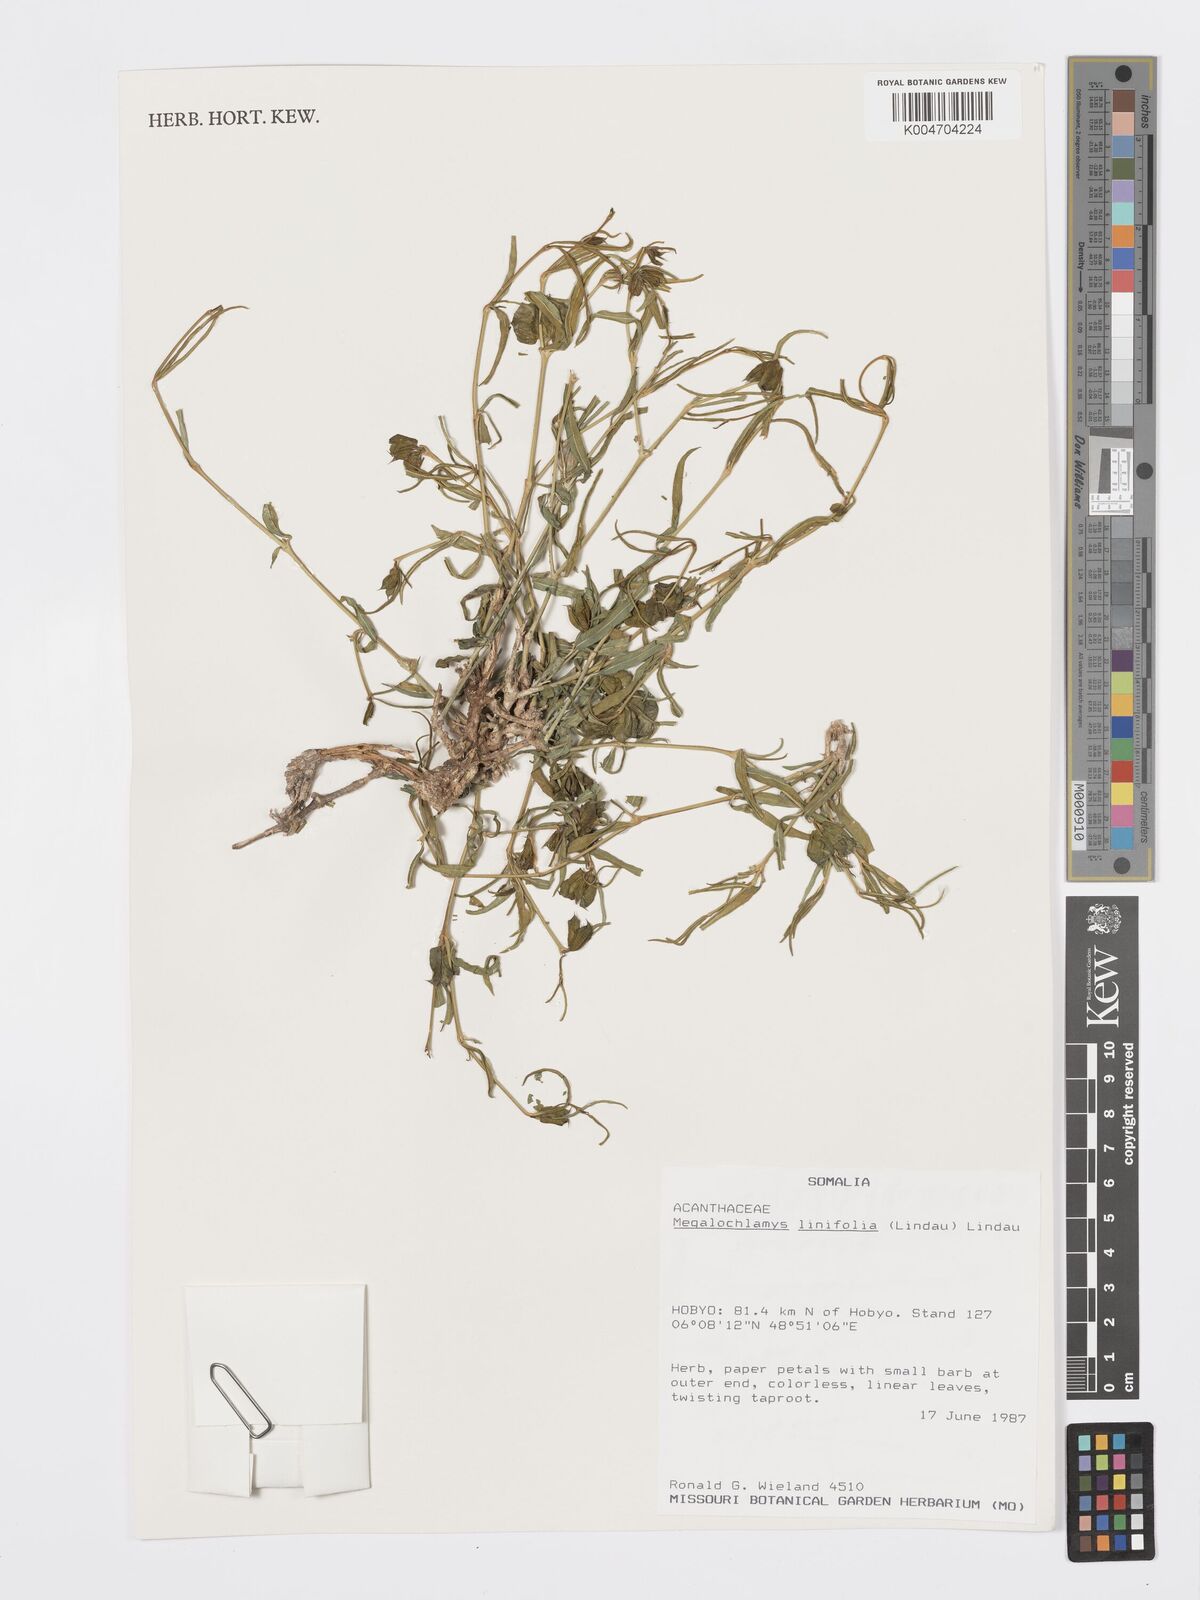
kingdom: Plantae
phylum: Tracheophyta
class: Magnoliopsida
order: Lamiales
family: Acanthaceae
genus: Megalochlamys
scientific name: Megalochlamys linifolia
